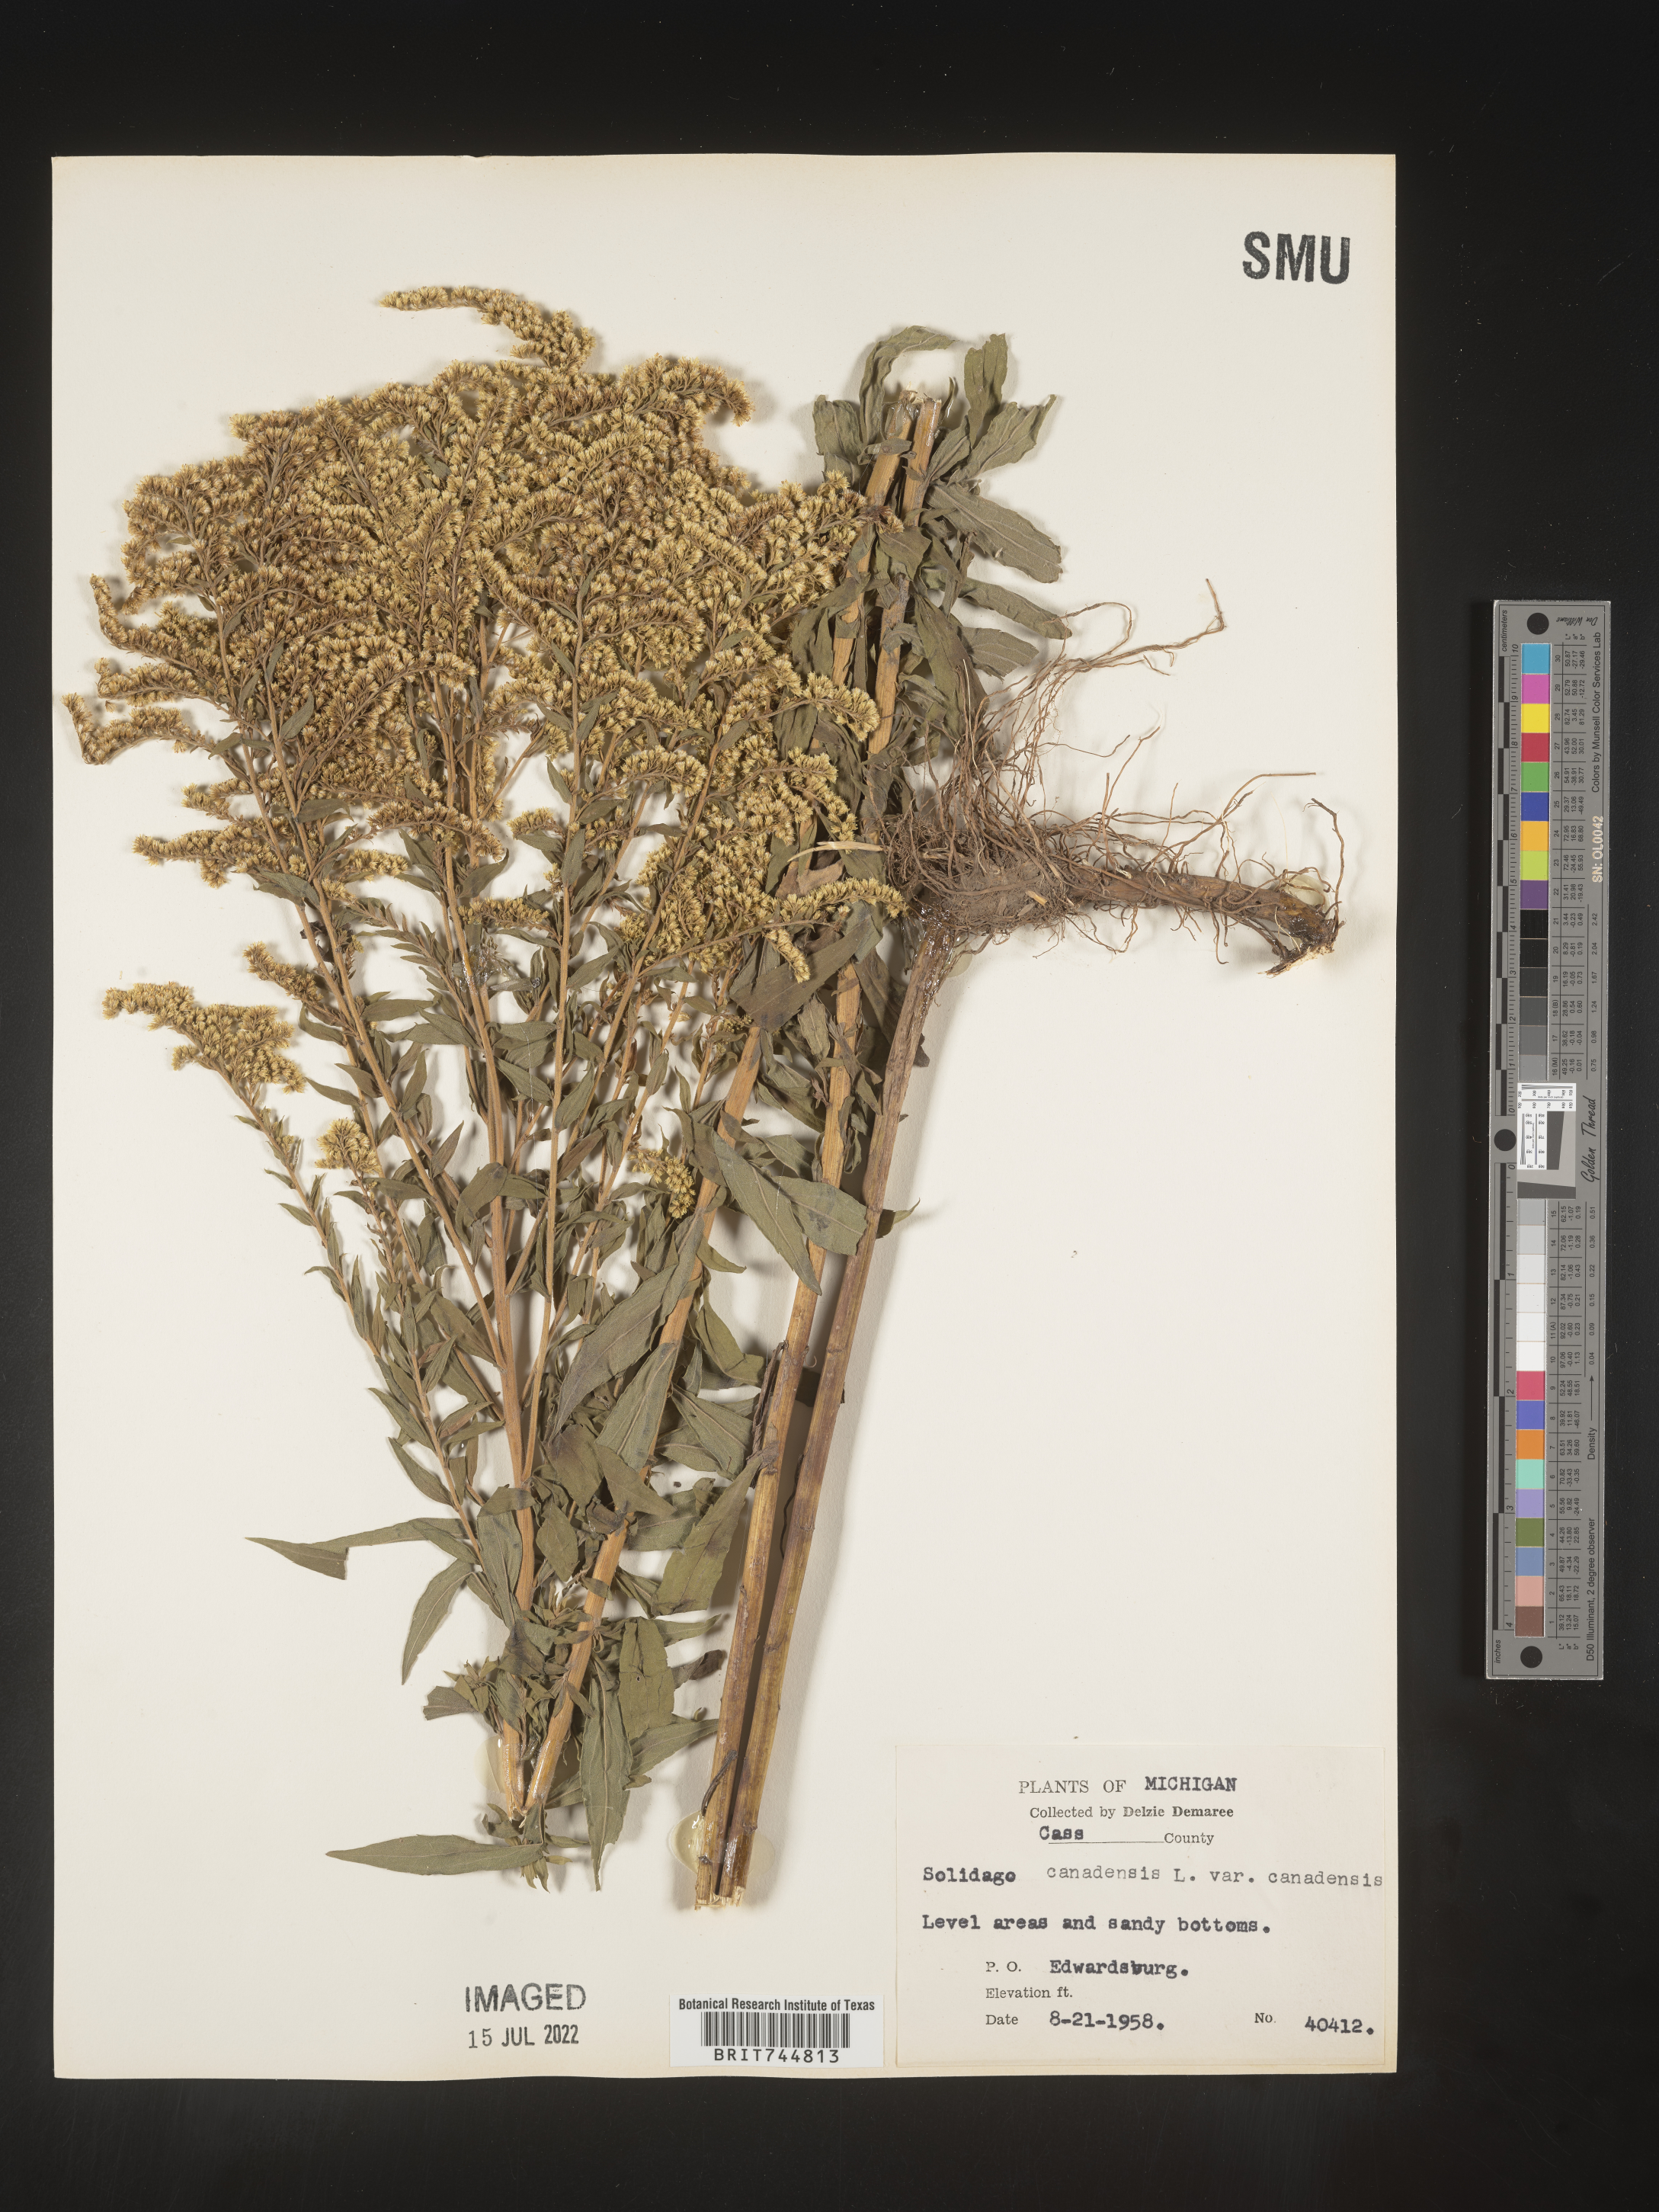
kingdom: Plantae
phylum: Tracheophyta
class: Magnoliopsida
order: Asterales
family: Asteraceae
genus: Solidago
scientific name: Solidago canadensis
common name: Canada goldenrod
